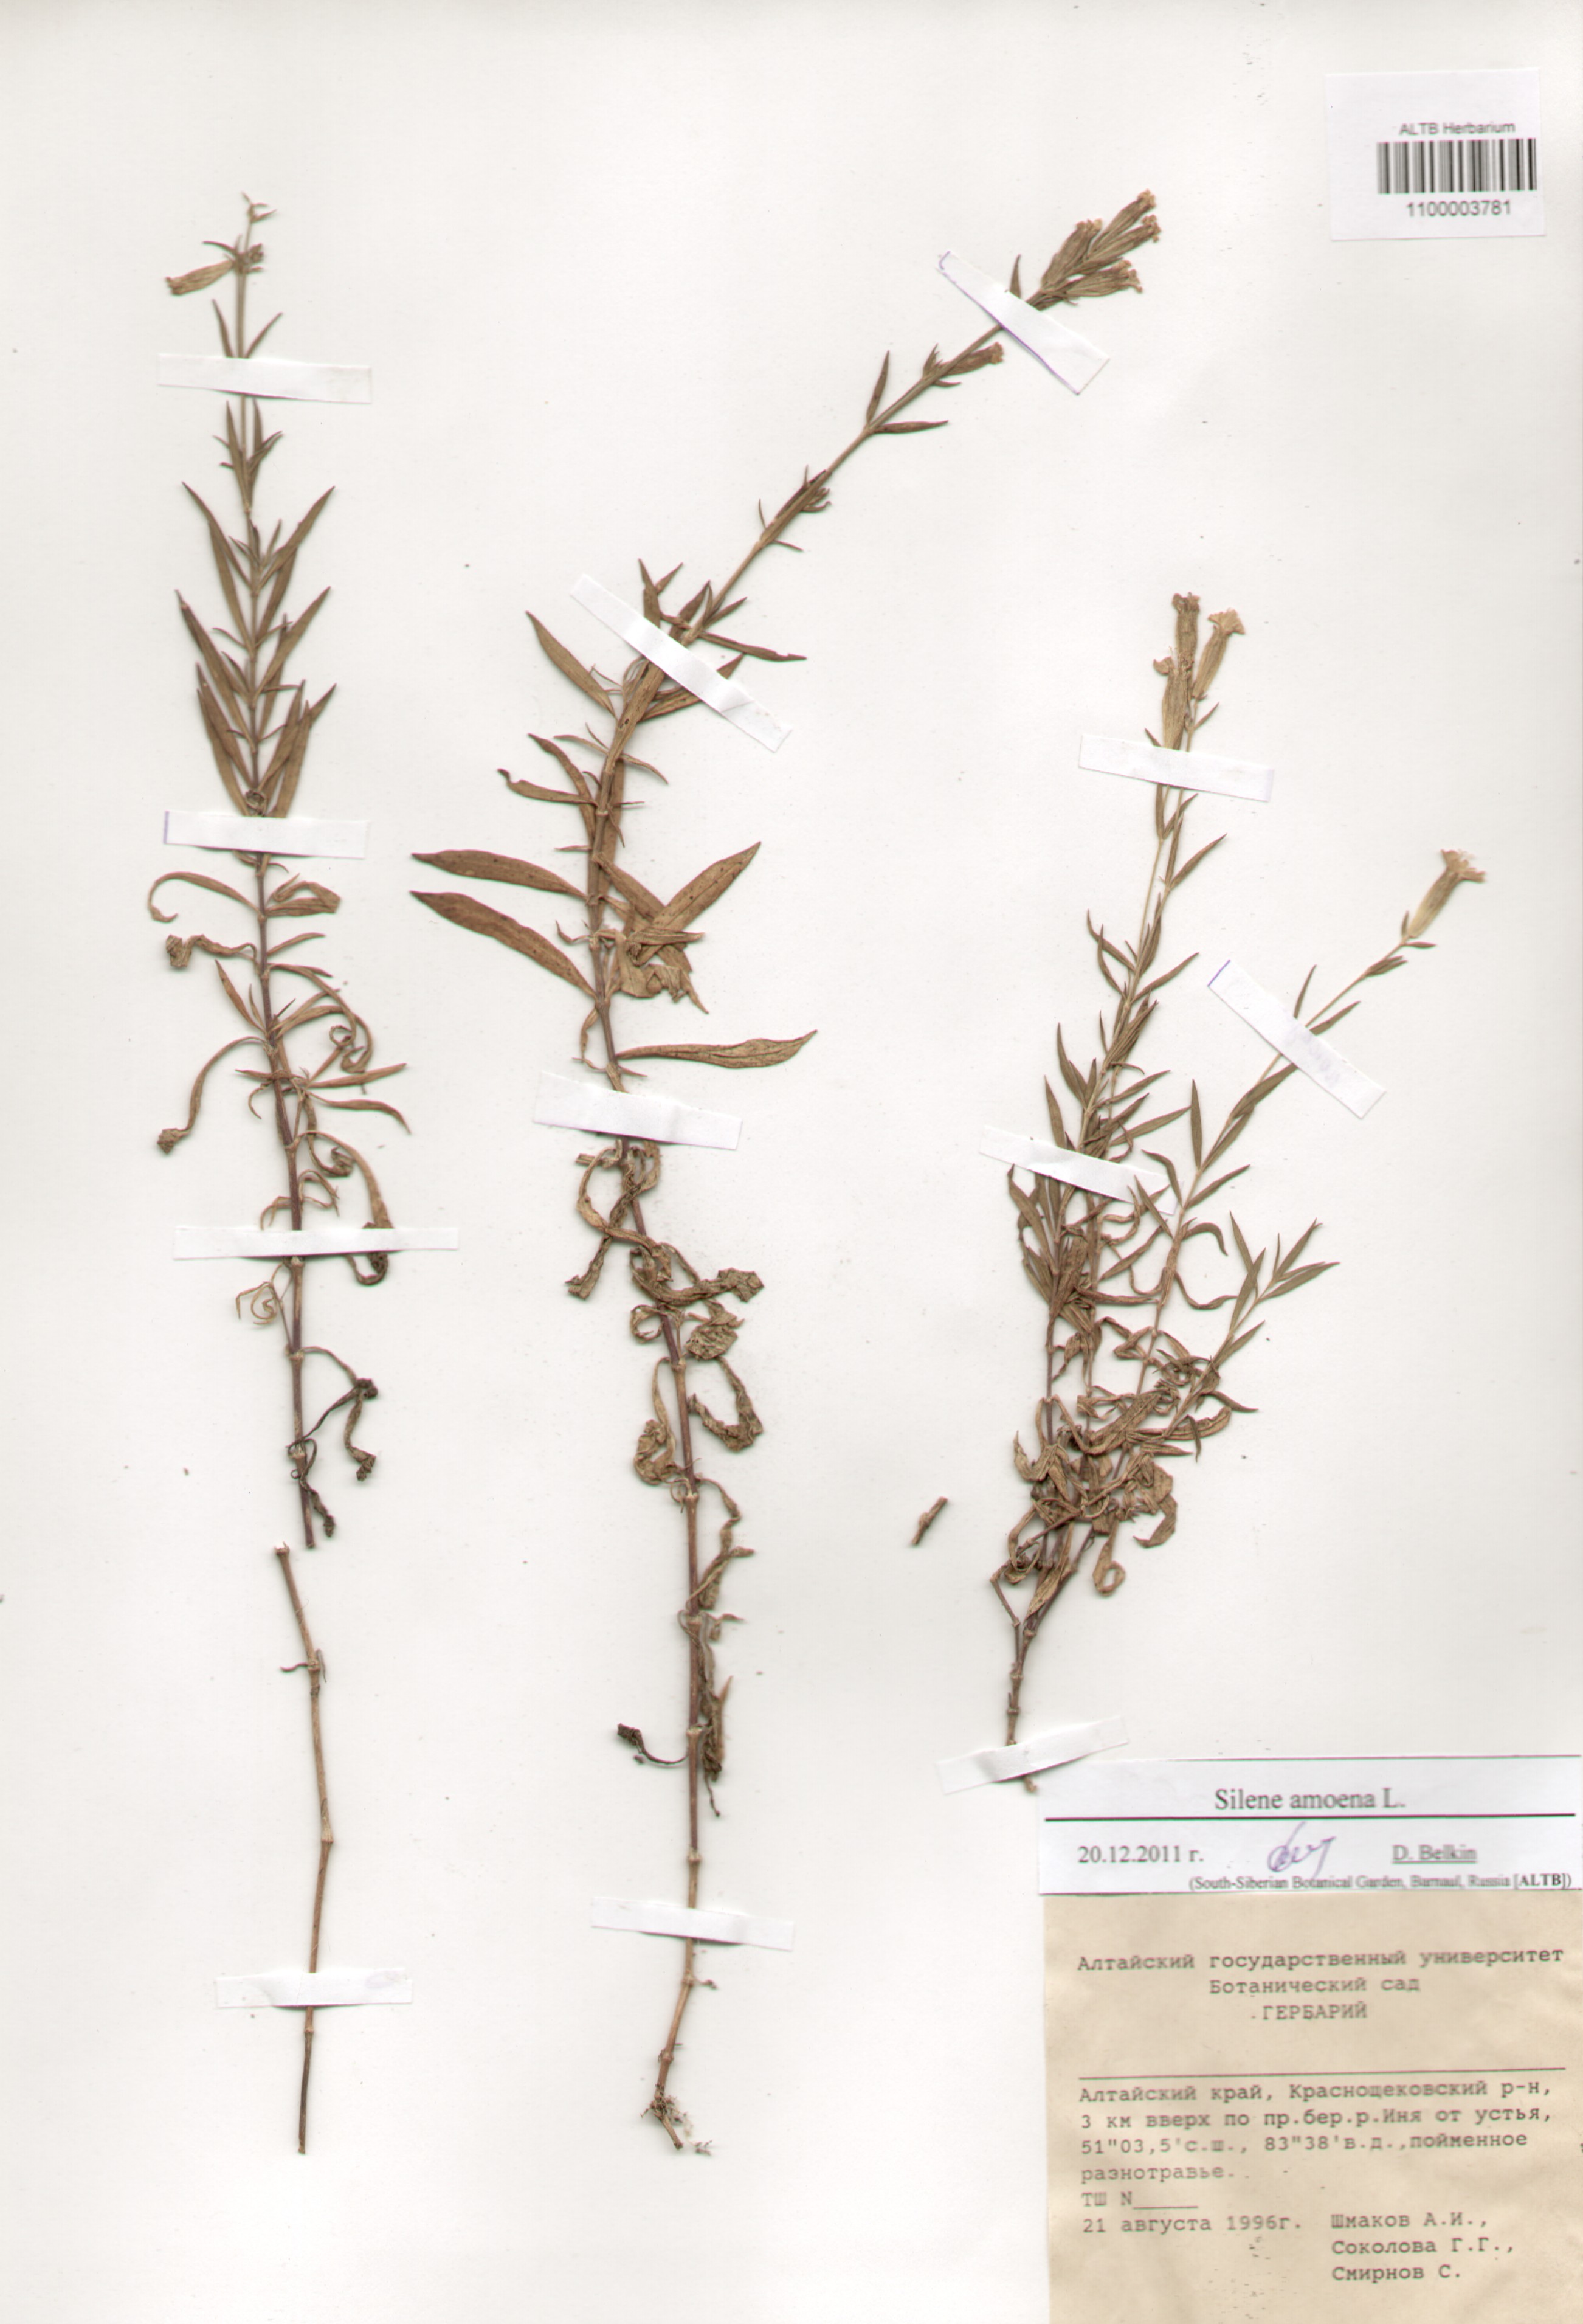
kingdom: Plantae
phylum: Tracheophyta
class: Magnoliopsida
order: Caryophyllales
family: Caryophyllaceae
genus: Silene
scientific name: Silene amoena
